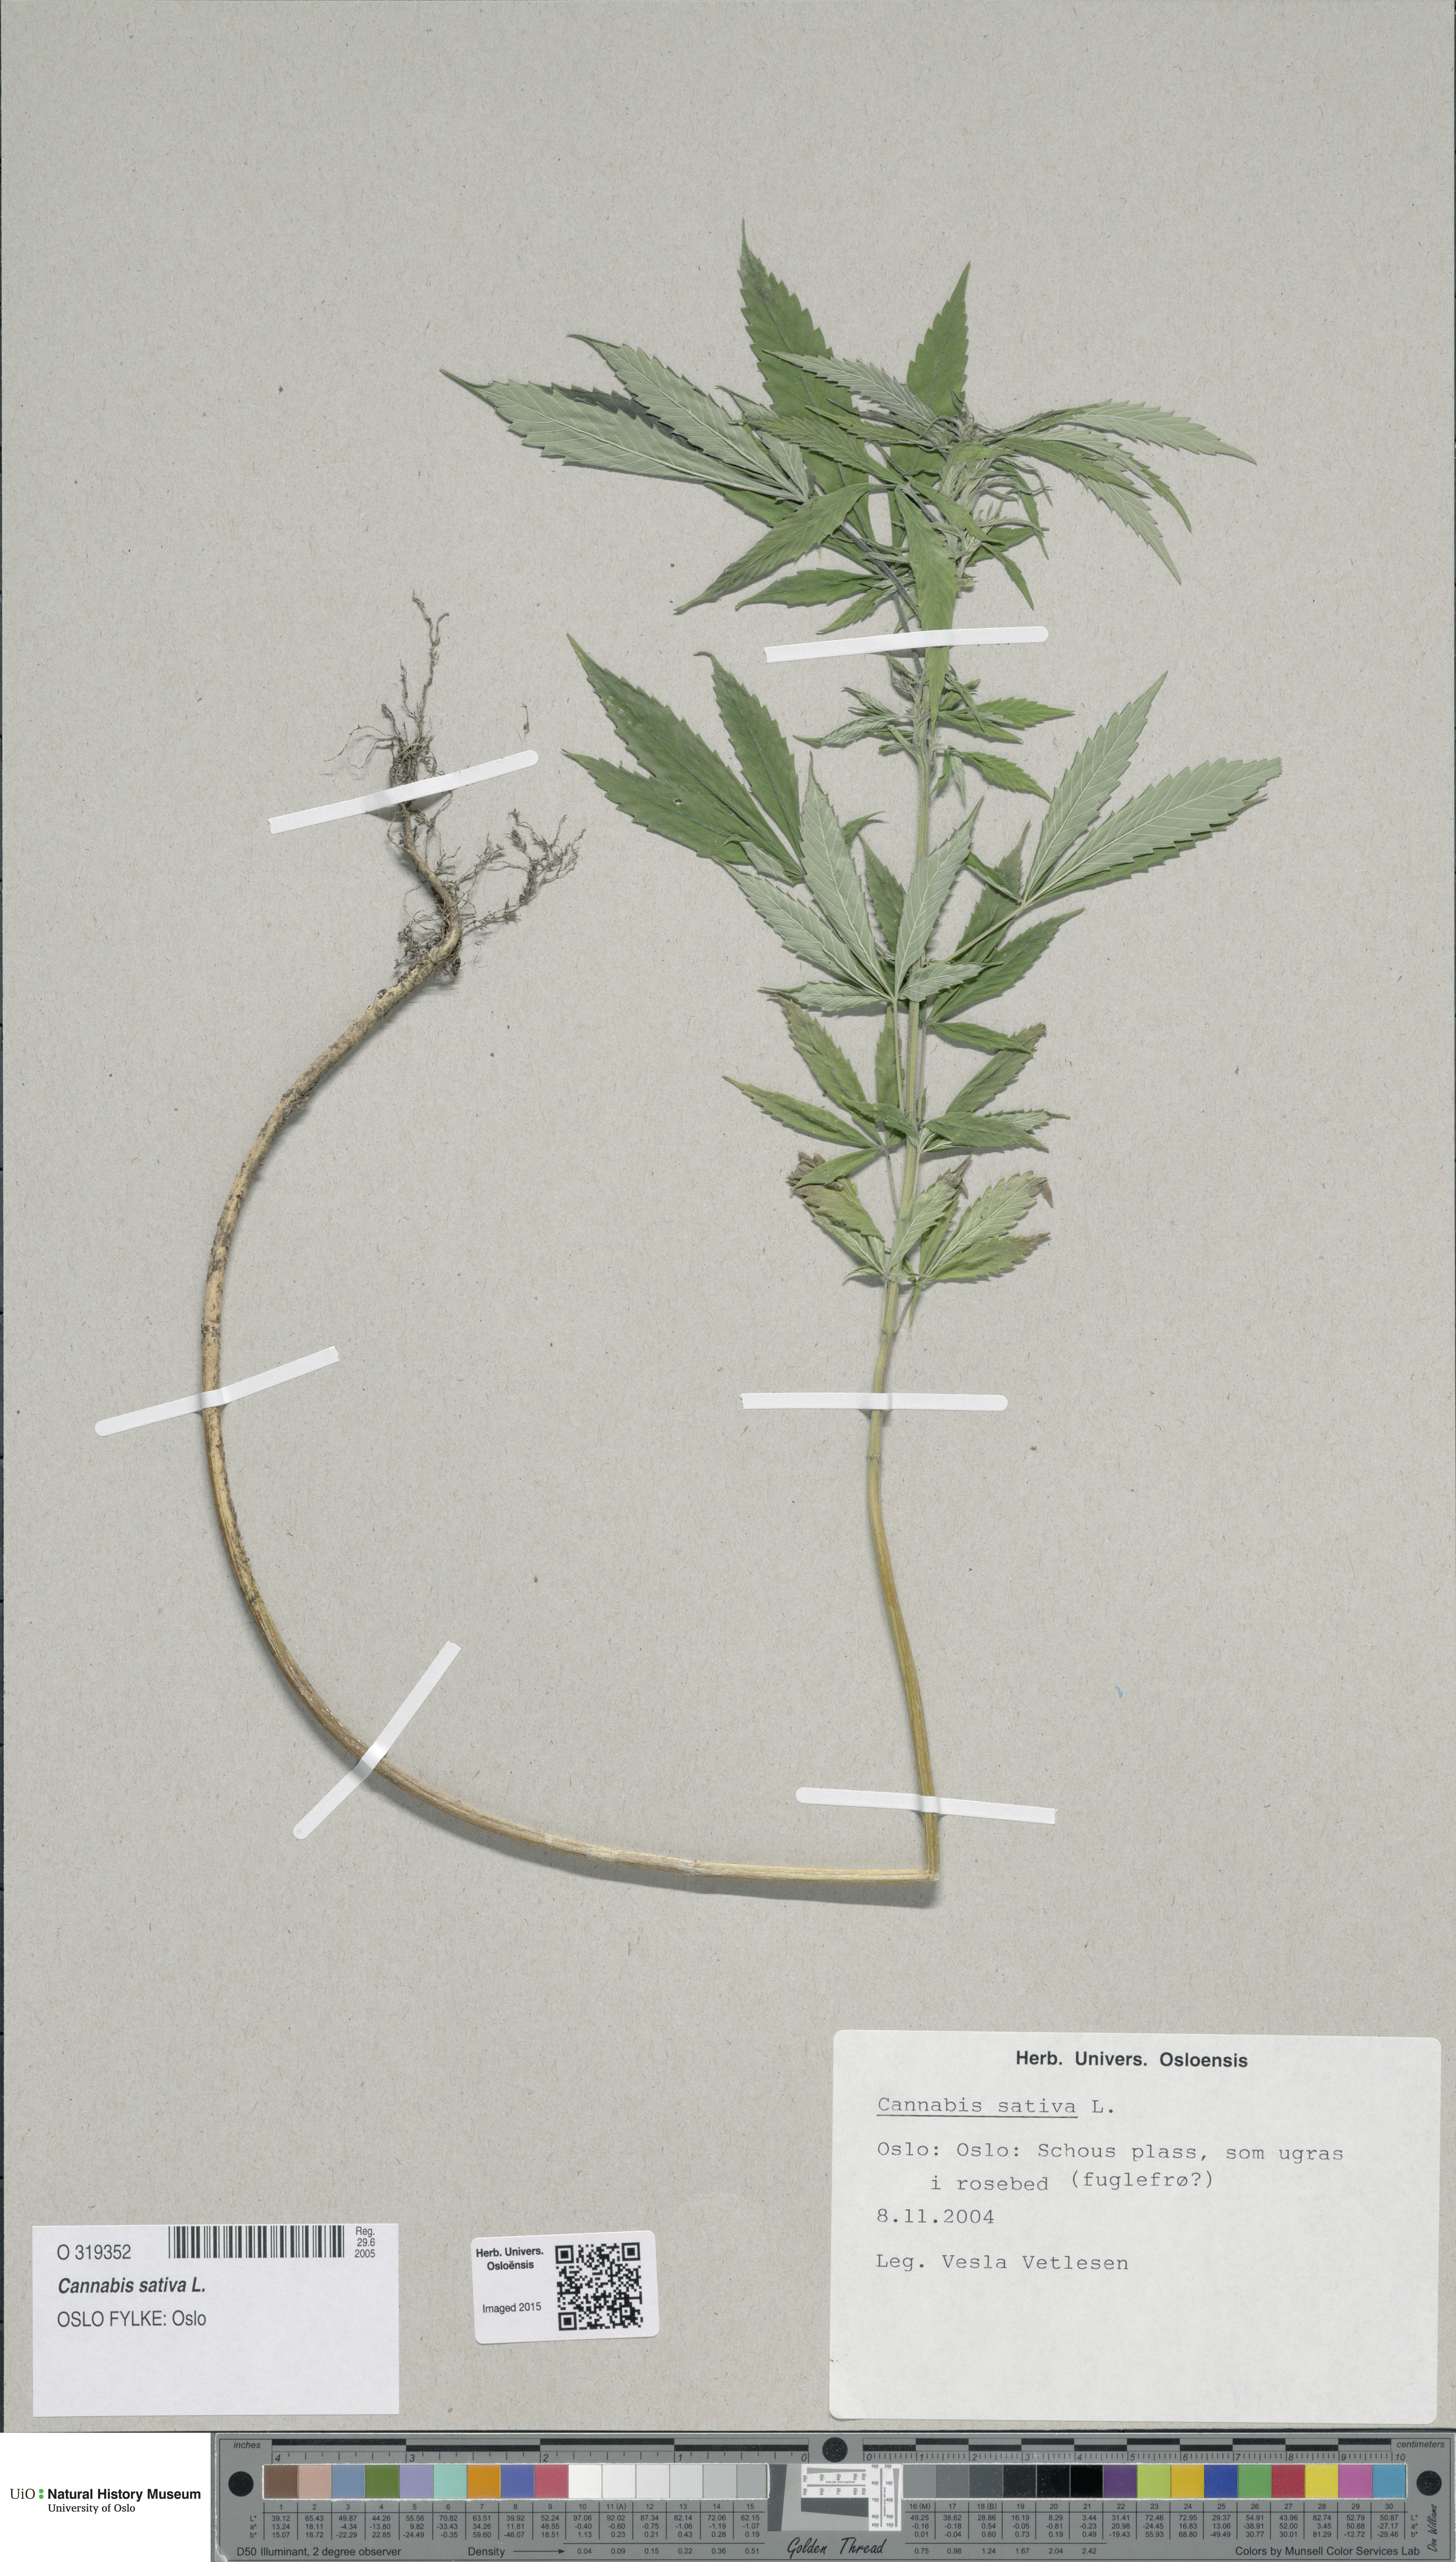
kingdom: Plantae
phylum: Tracheophyta
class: Magnoliopsida
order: Rosales
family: Cannabaceae
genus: Cannabis
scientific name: Cannabis sativa
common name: Hemp
